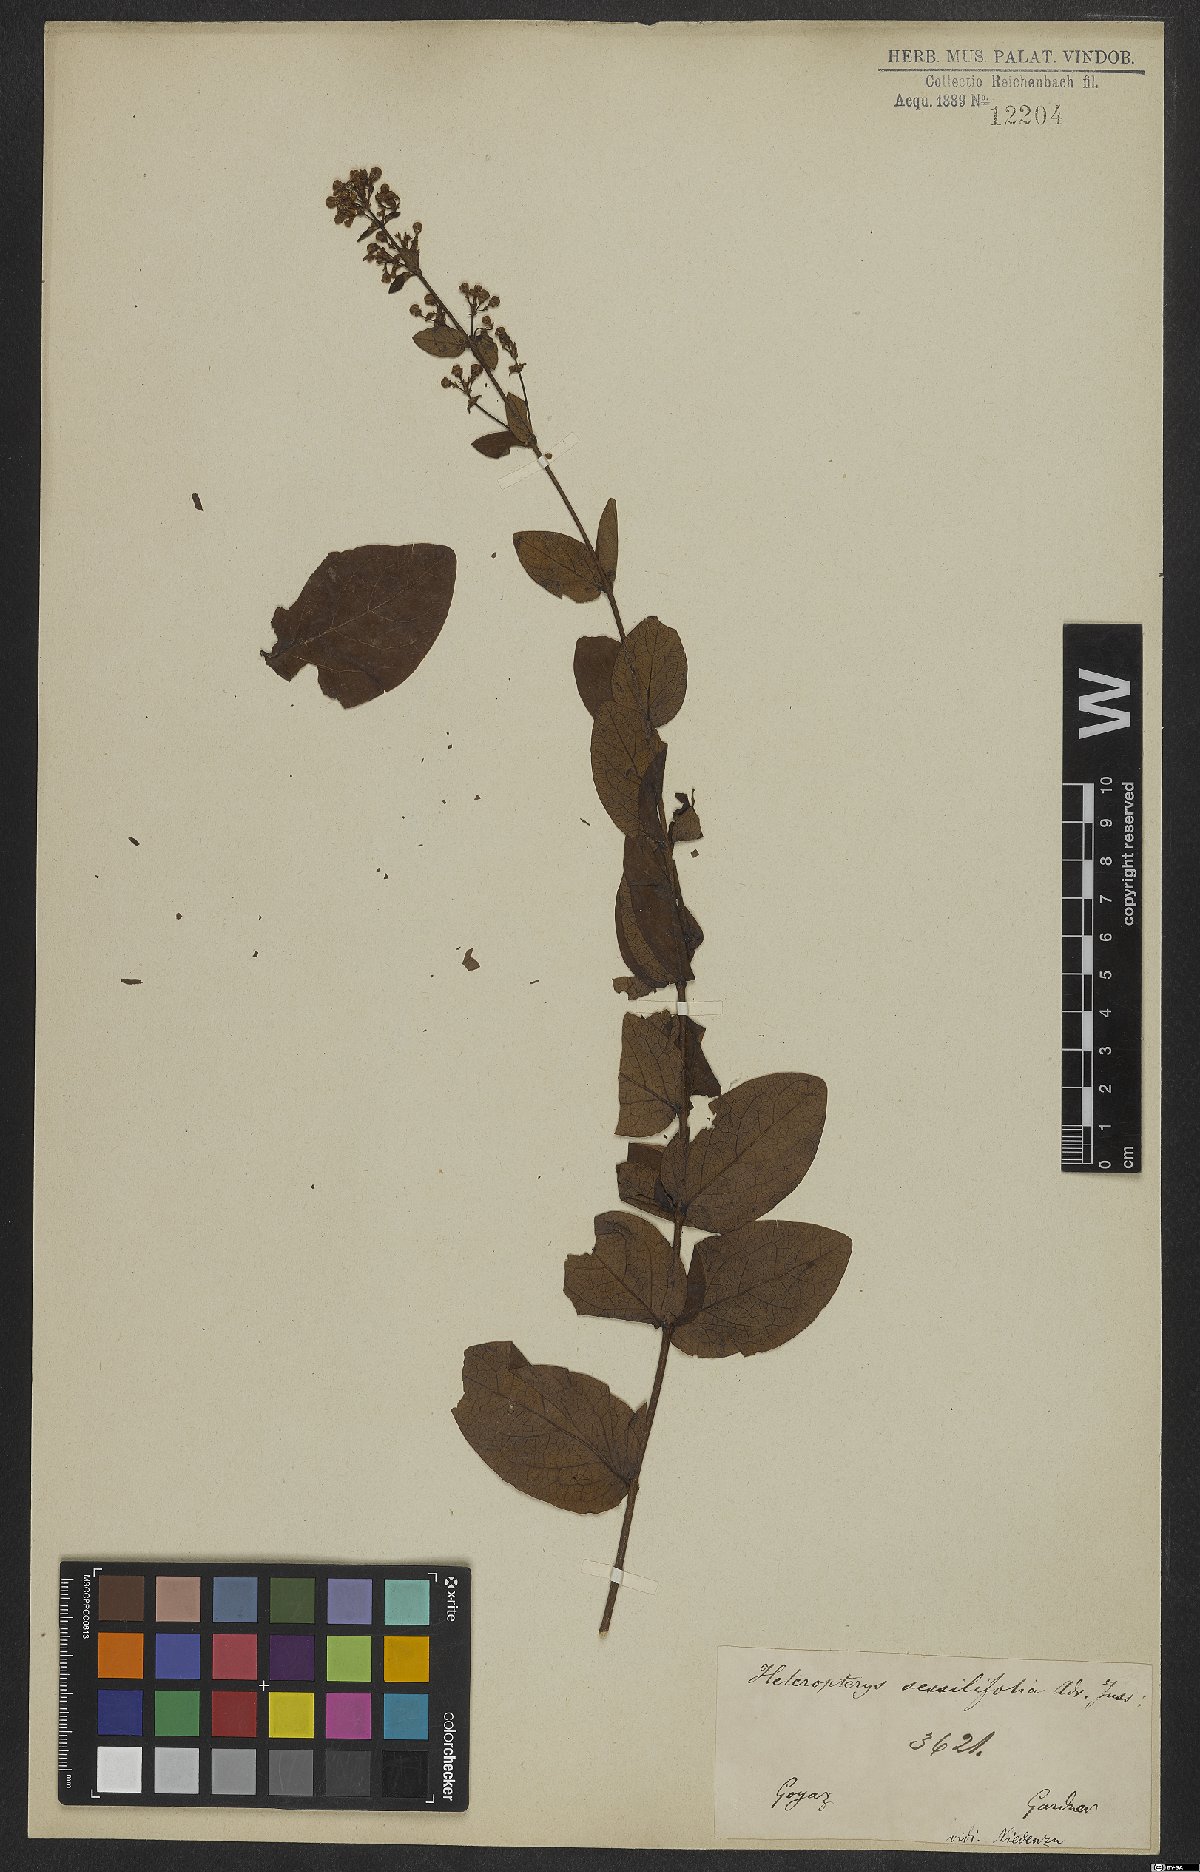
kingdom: Plantae
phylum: Tracheophyta
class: Magnoliopsida
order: Malpighiales
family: Malpighiaceae
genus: Heteropterys
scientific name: Heteropterys sessilifolia
